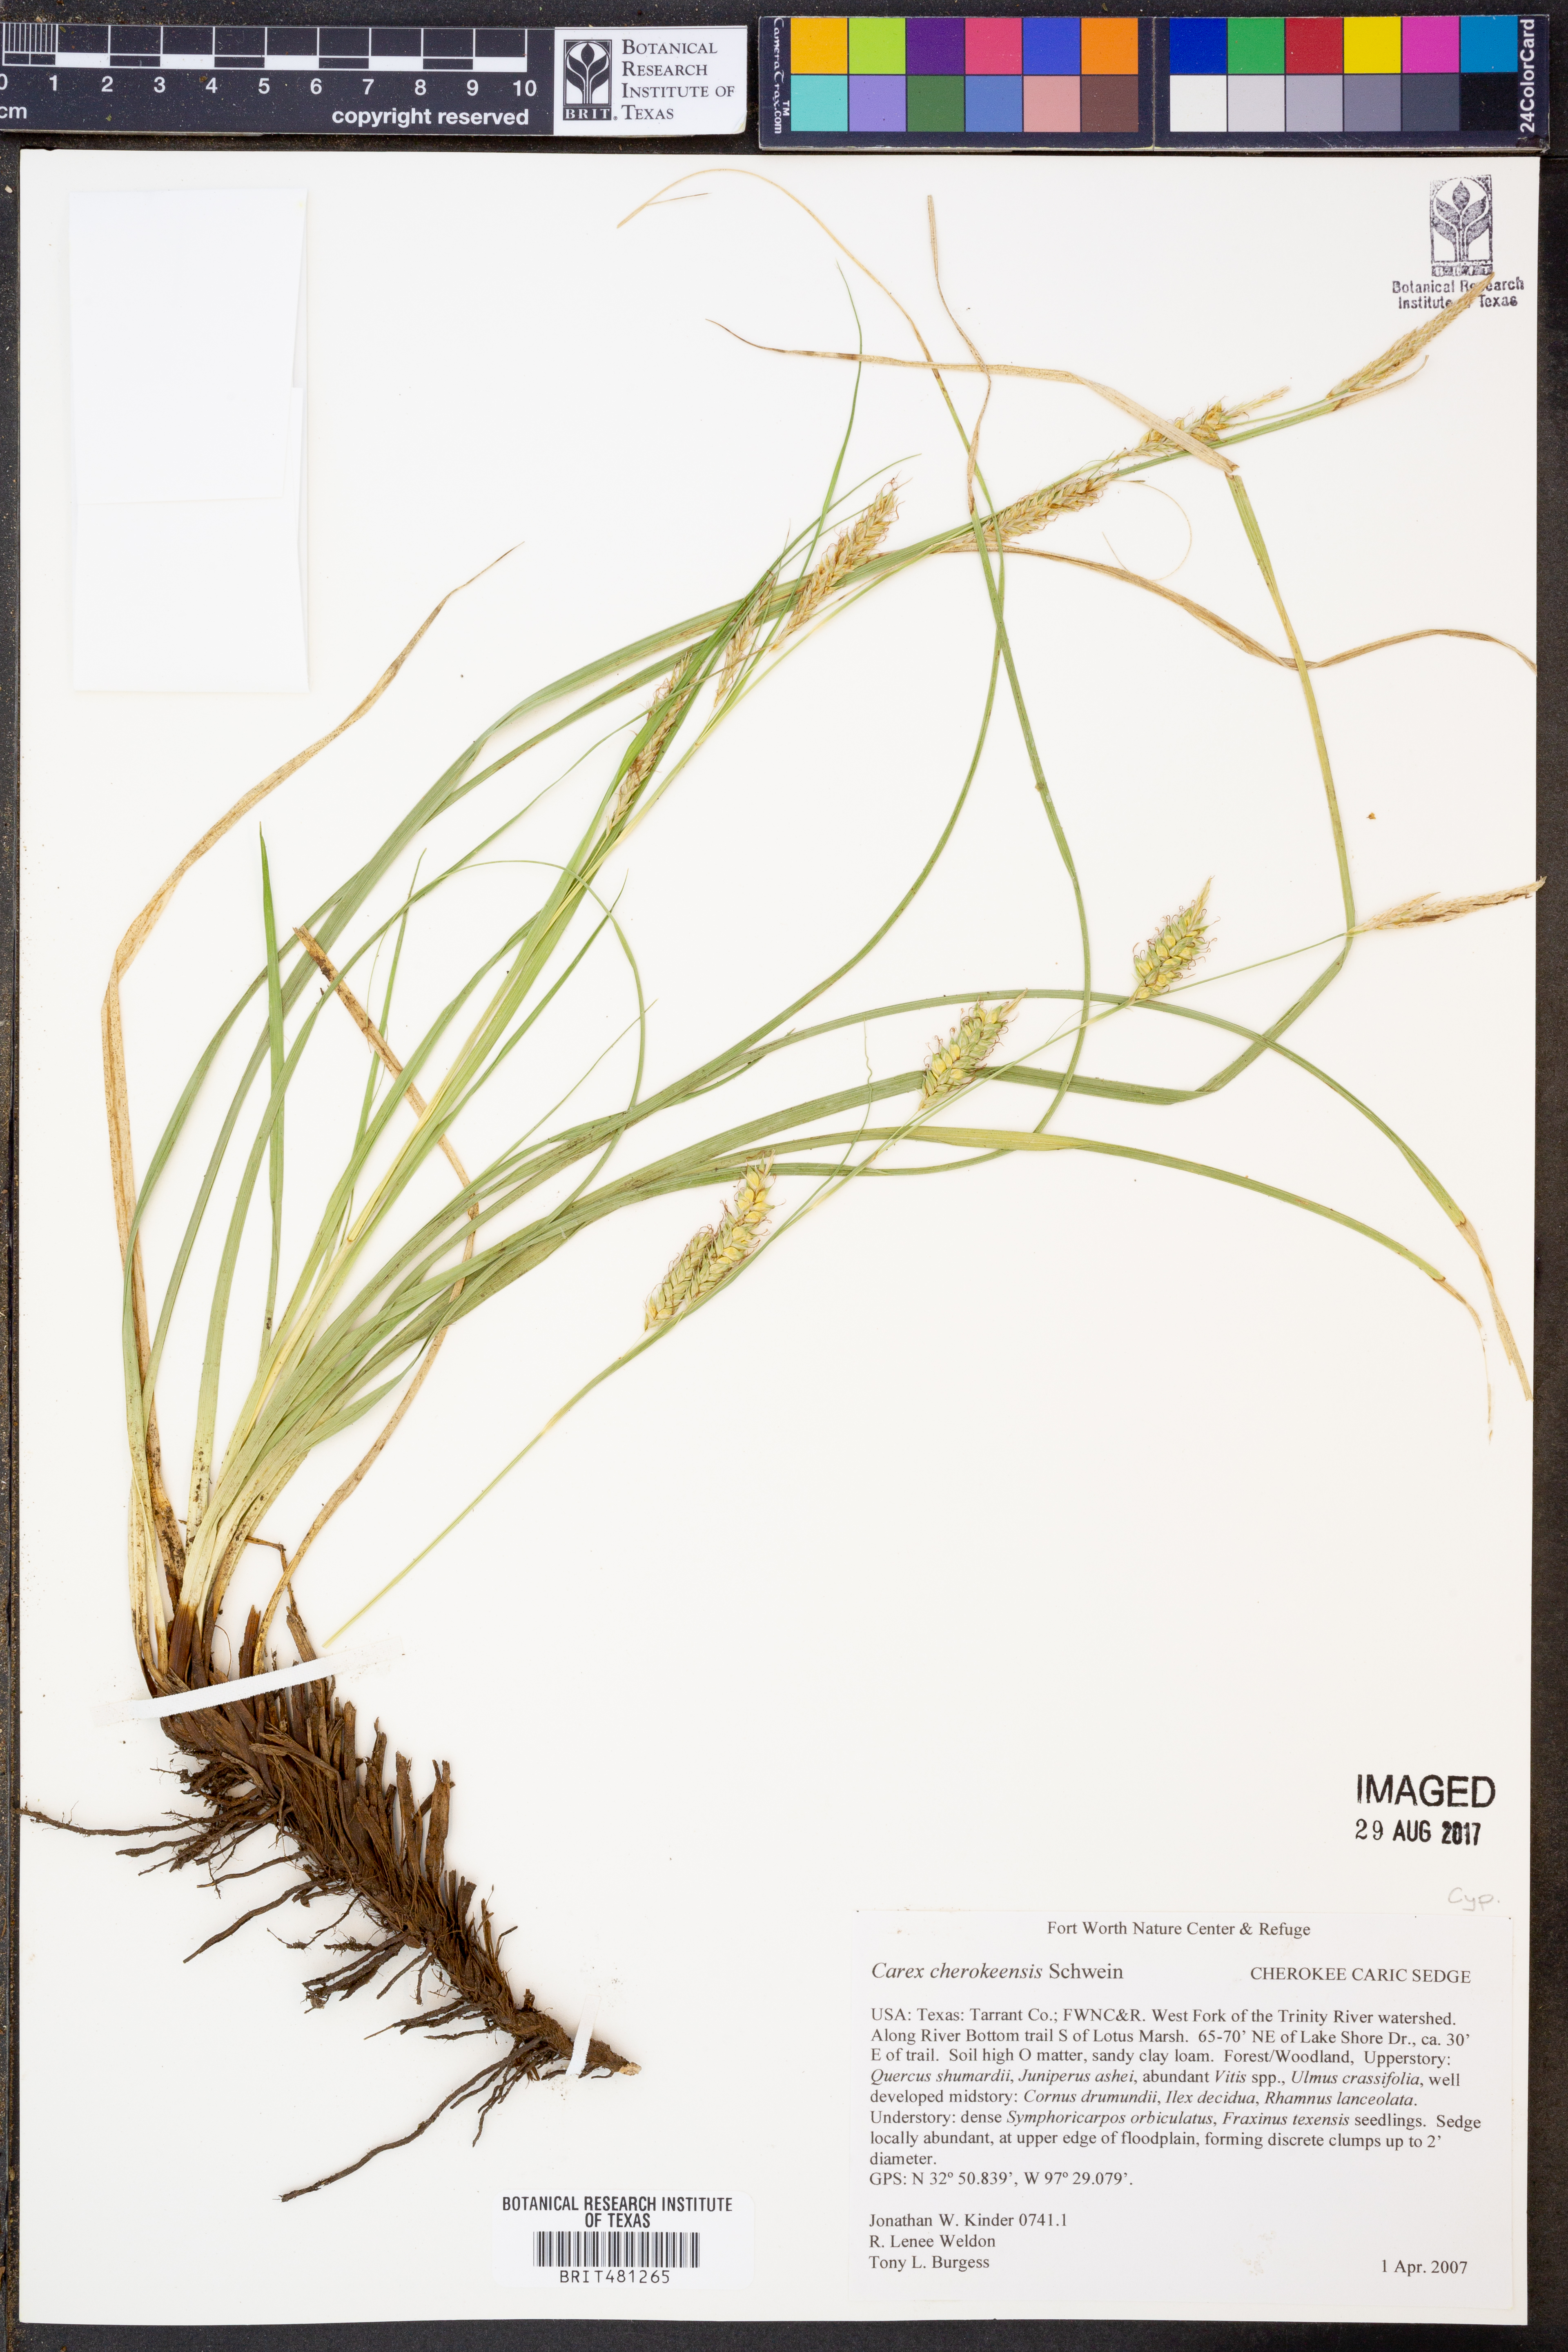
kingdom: Plantae
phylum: Tracheophyta
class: Liliopsida
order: Poales
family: Cyperaceae
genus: Carex
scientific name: Carex cherokeensis
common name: Cherokee sedge
